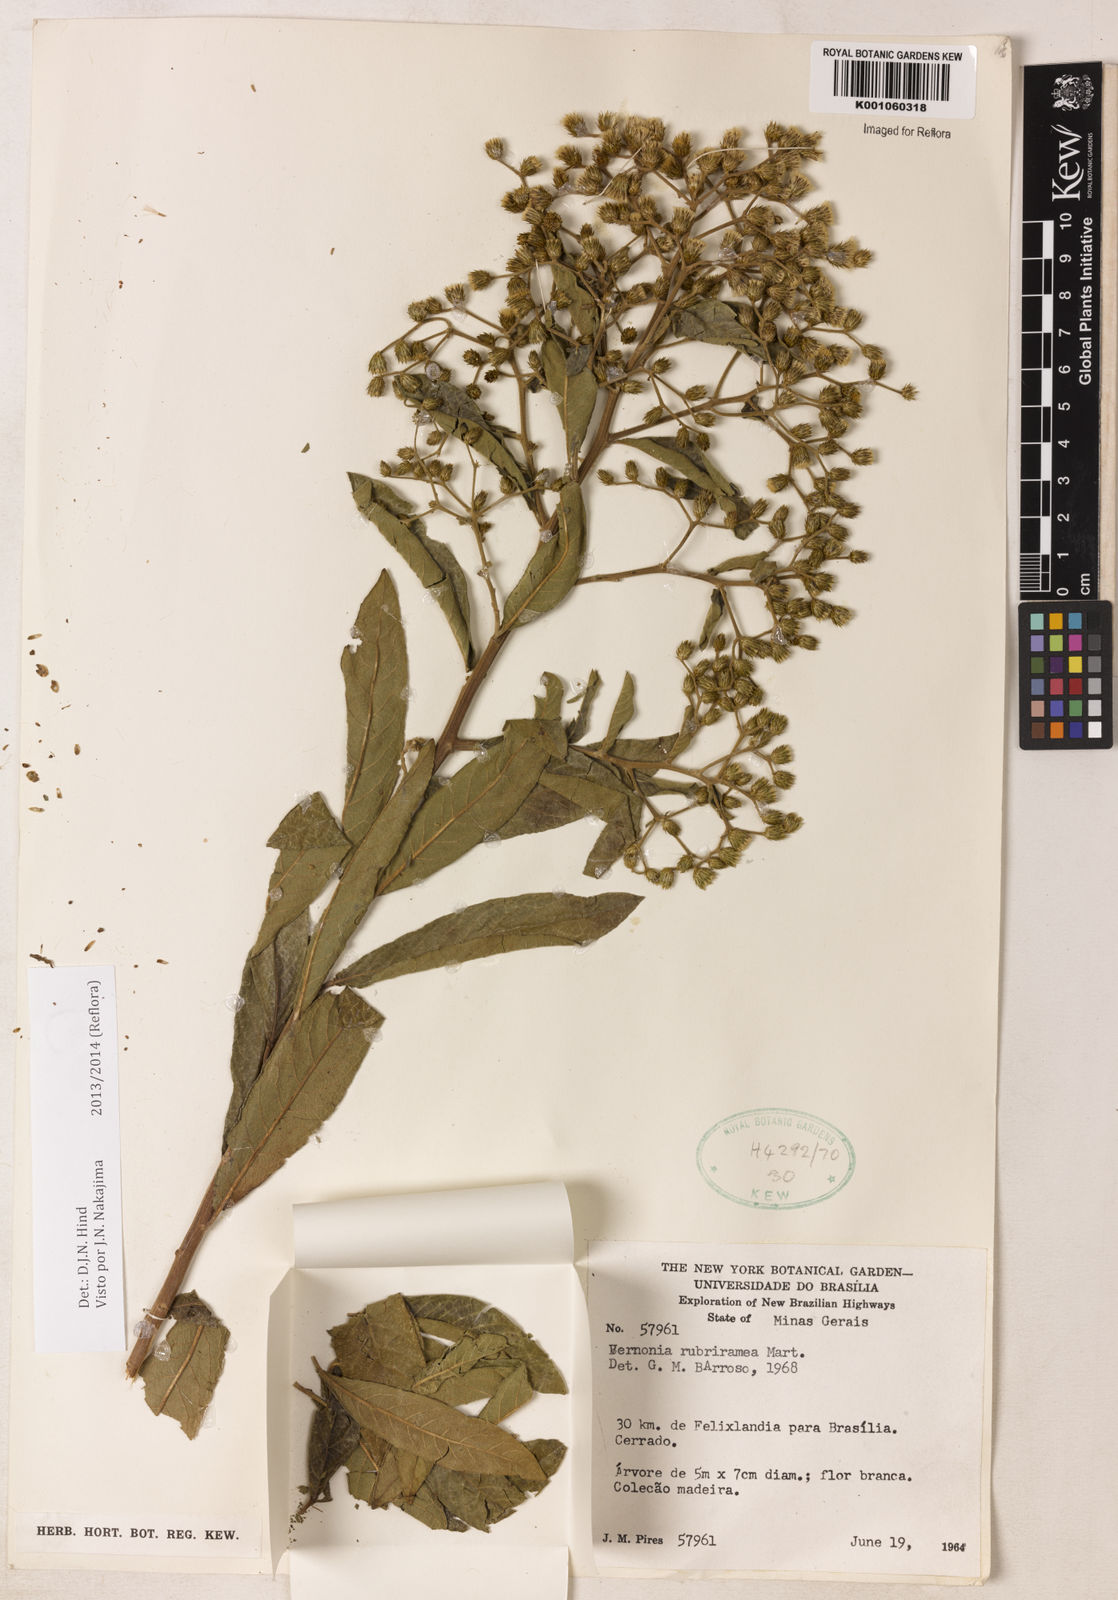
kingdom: Plantae
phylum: Tracheophyta
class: Magnoliopsida
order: Asterales
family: Asteraceae
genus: Vernonanthura
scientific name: Vernonanthura rubriramea
